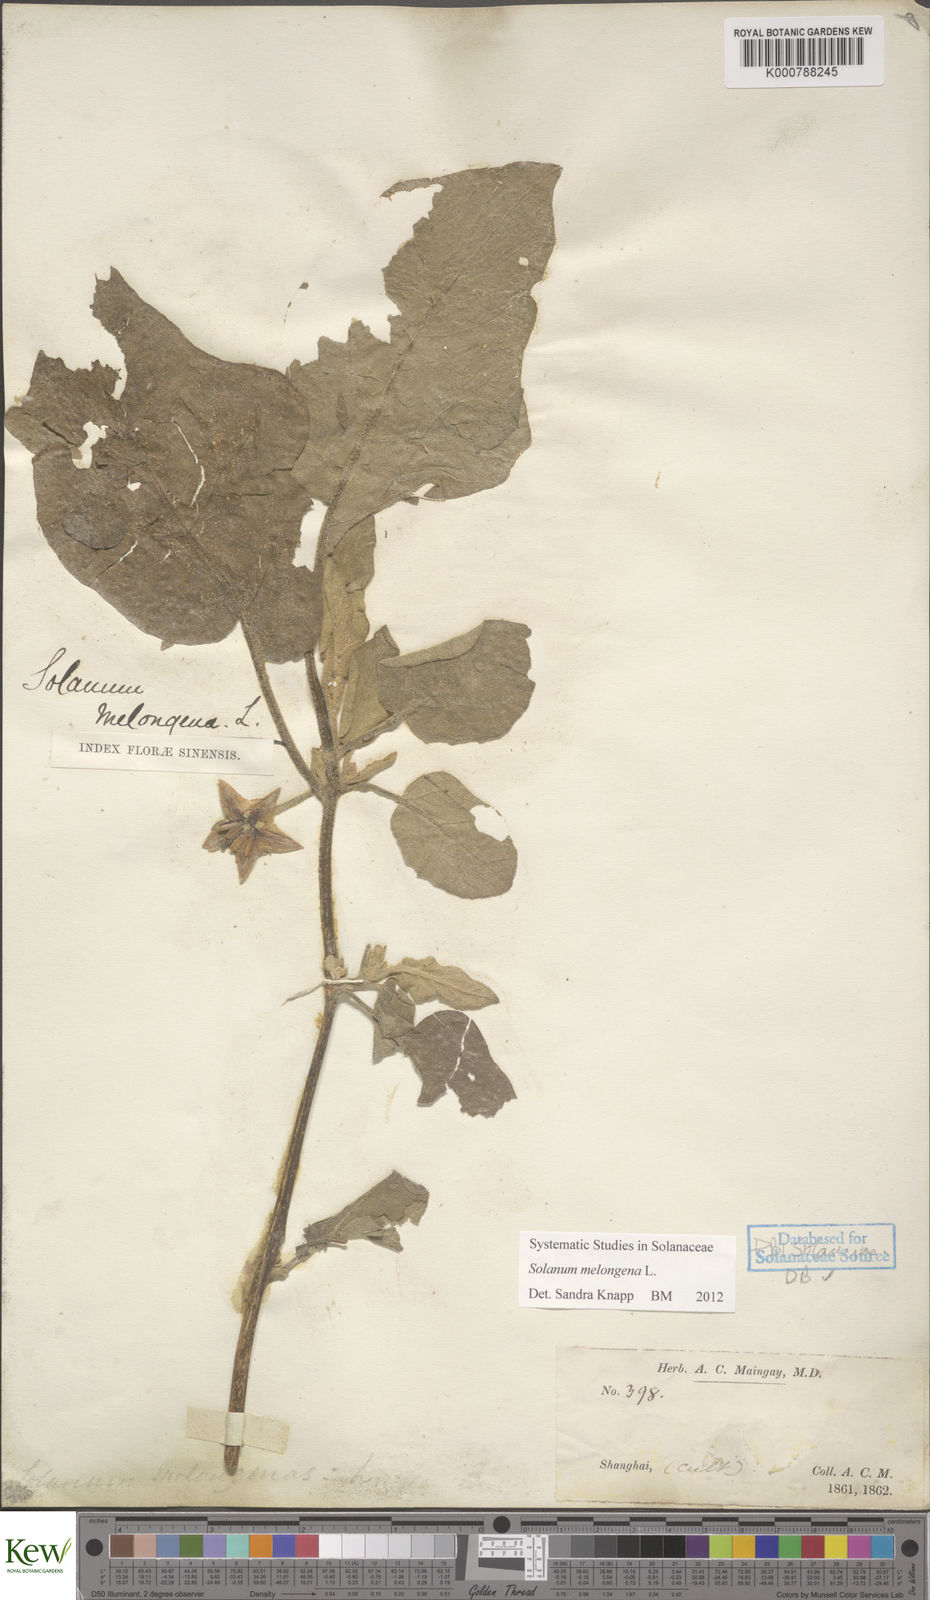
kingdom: Plantae
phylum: Tracheophyta
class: Magnoliopsida
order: Solanales
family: Solanaceae
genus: Solanum
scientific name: Solanum melongena
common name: Eggplant
